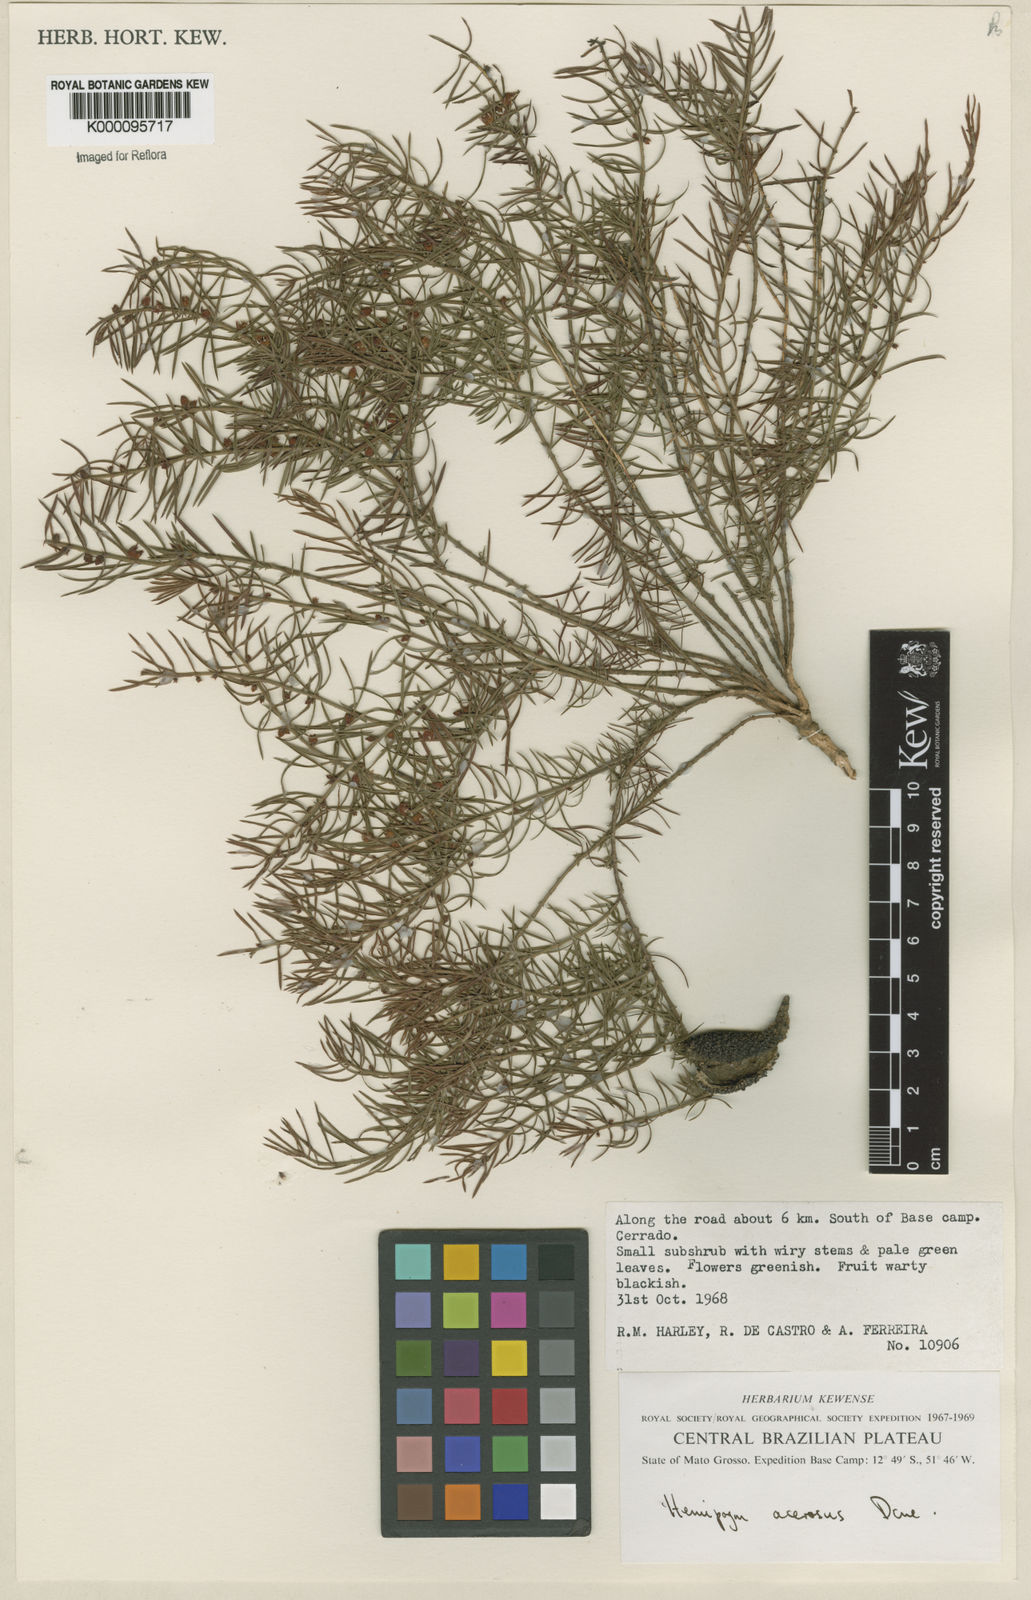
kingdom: Plantae
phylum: Tracheophyta
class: Magnoliopsida
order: Gentianales
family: Apocynaceae
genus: Hemipogon
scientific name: Hemipogon acerosus
